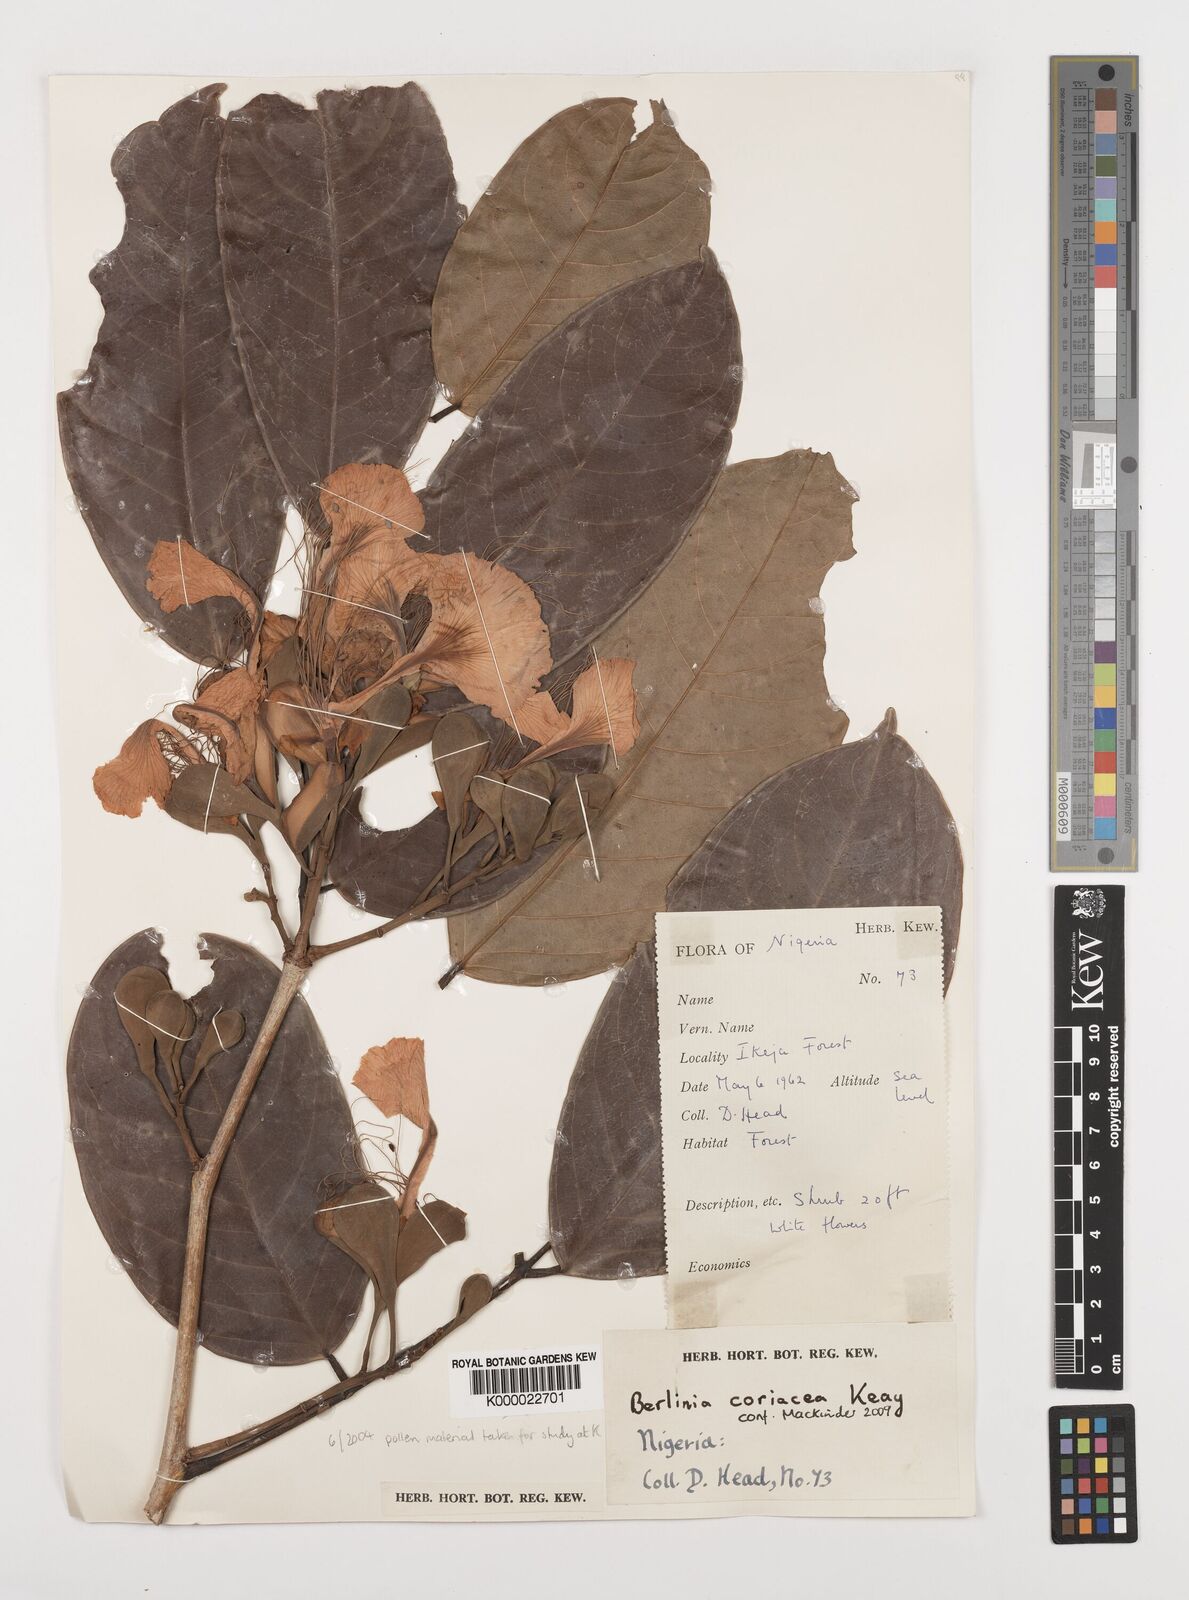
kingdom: Plantae
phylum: Tracheophyta
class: Magnoliopsida
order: Fabales
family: Fabaceae
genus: Berlinia
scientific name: Berlinia coriacea
